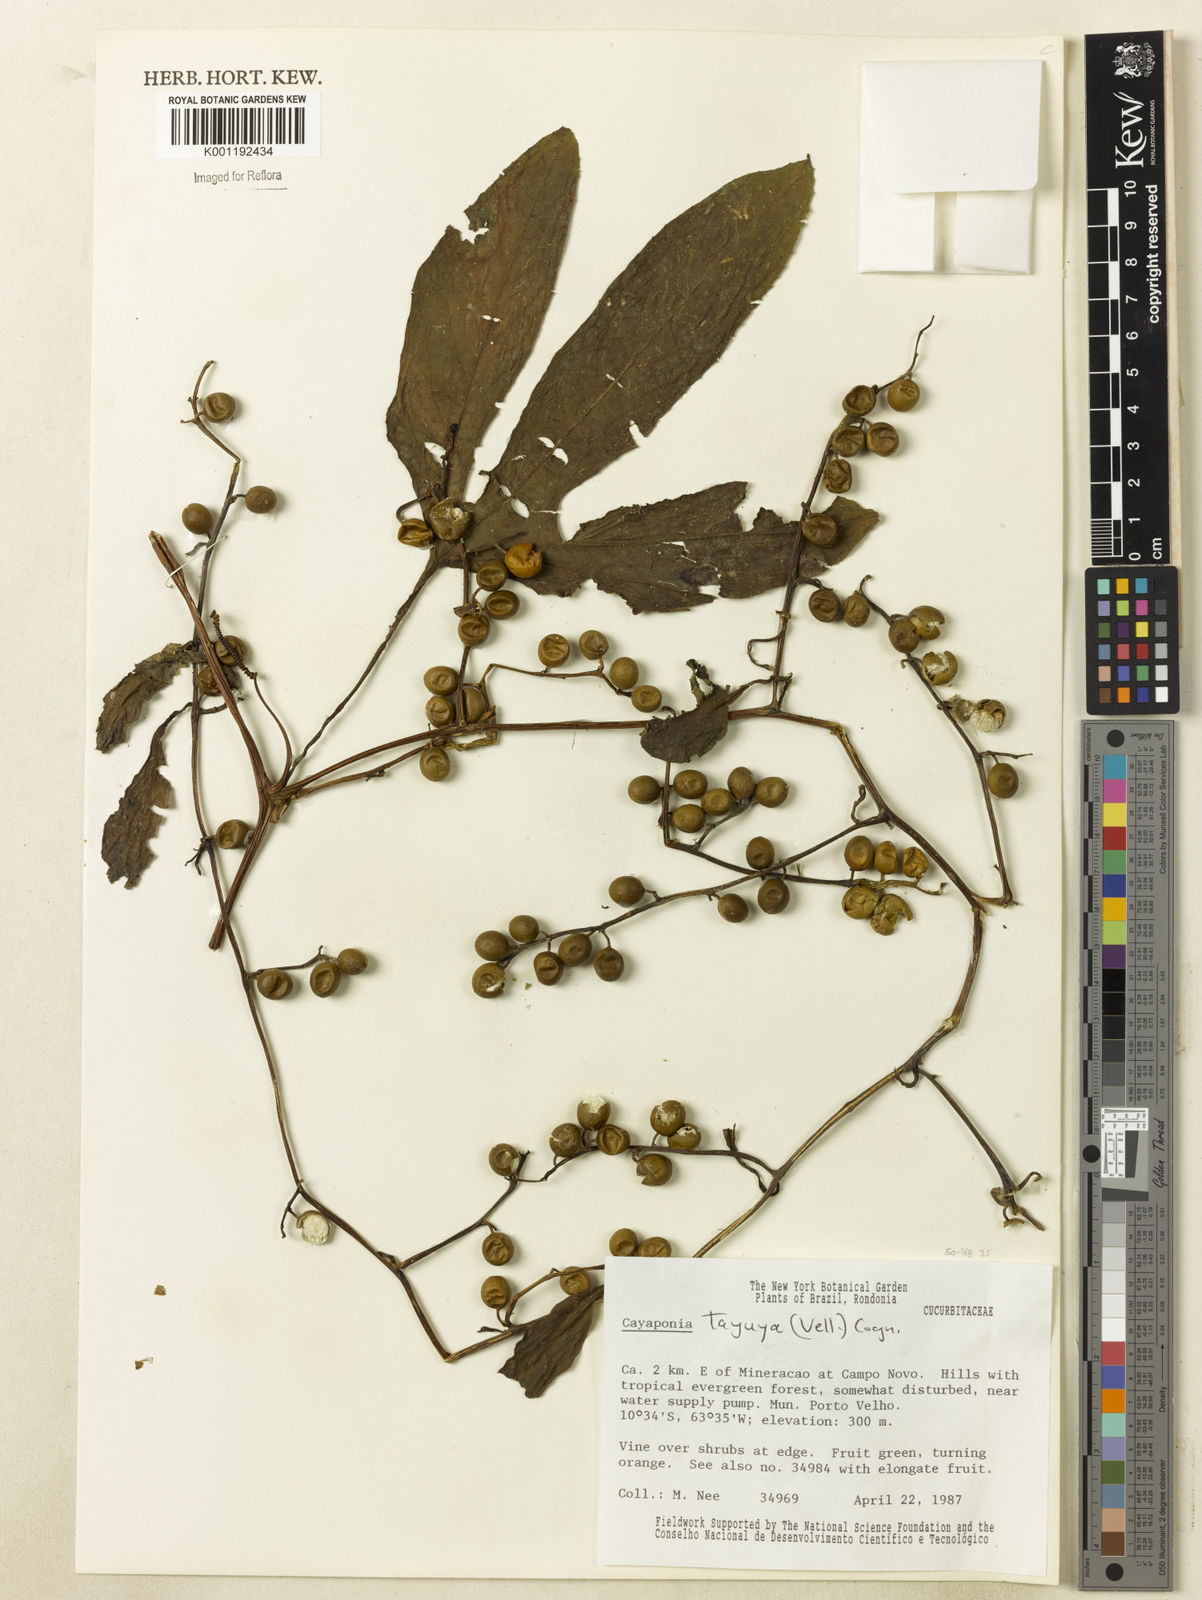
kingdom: Plantae
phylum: Tracheophyta
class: Magnoliopsida
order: Cucurbitales
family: Cucurbitaceae
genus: Cayaponia
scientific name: Cayaponia tayuya
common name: Tayuya
